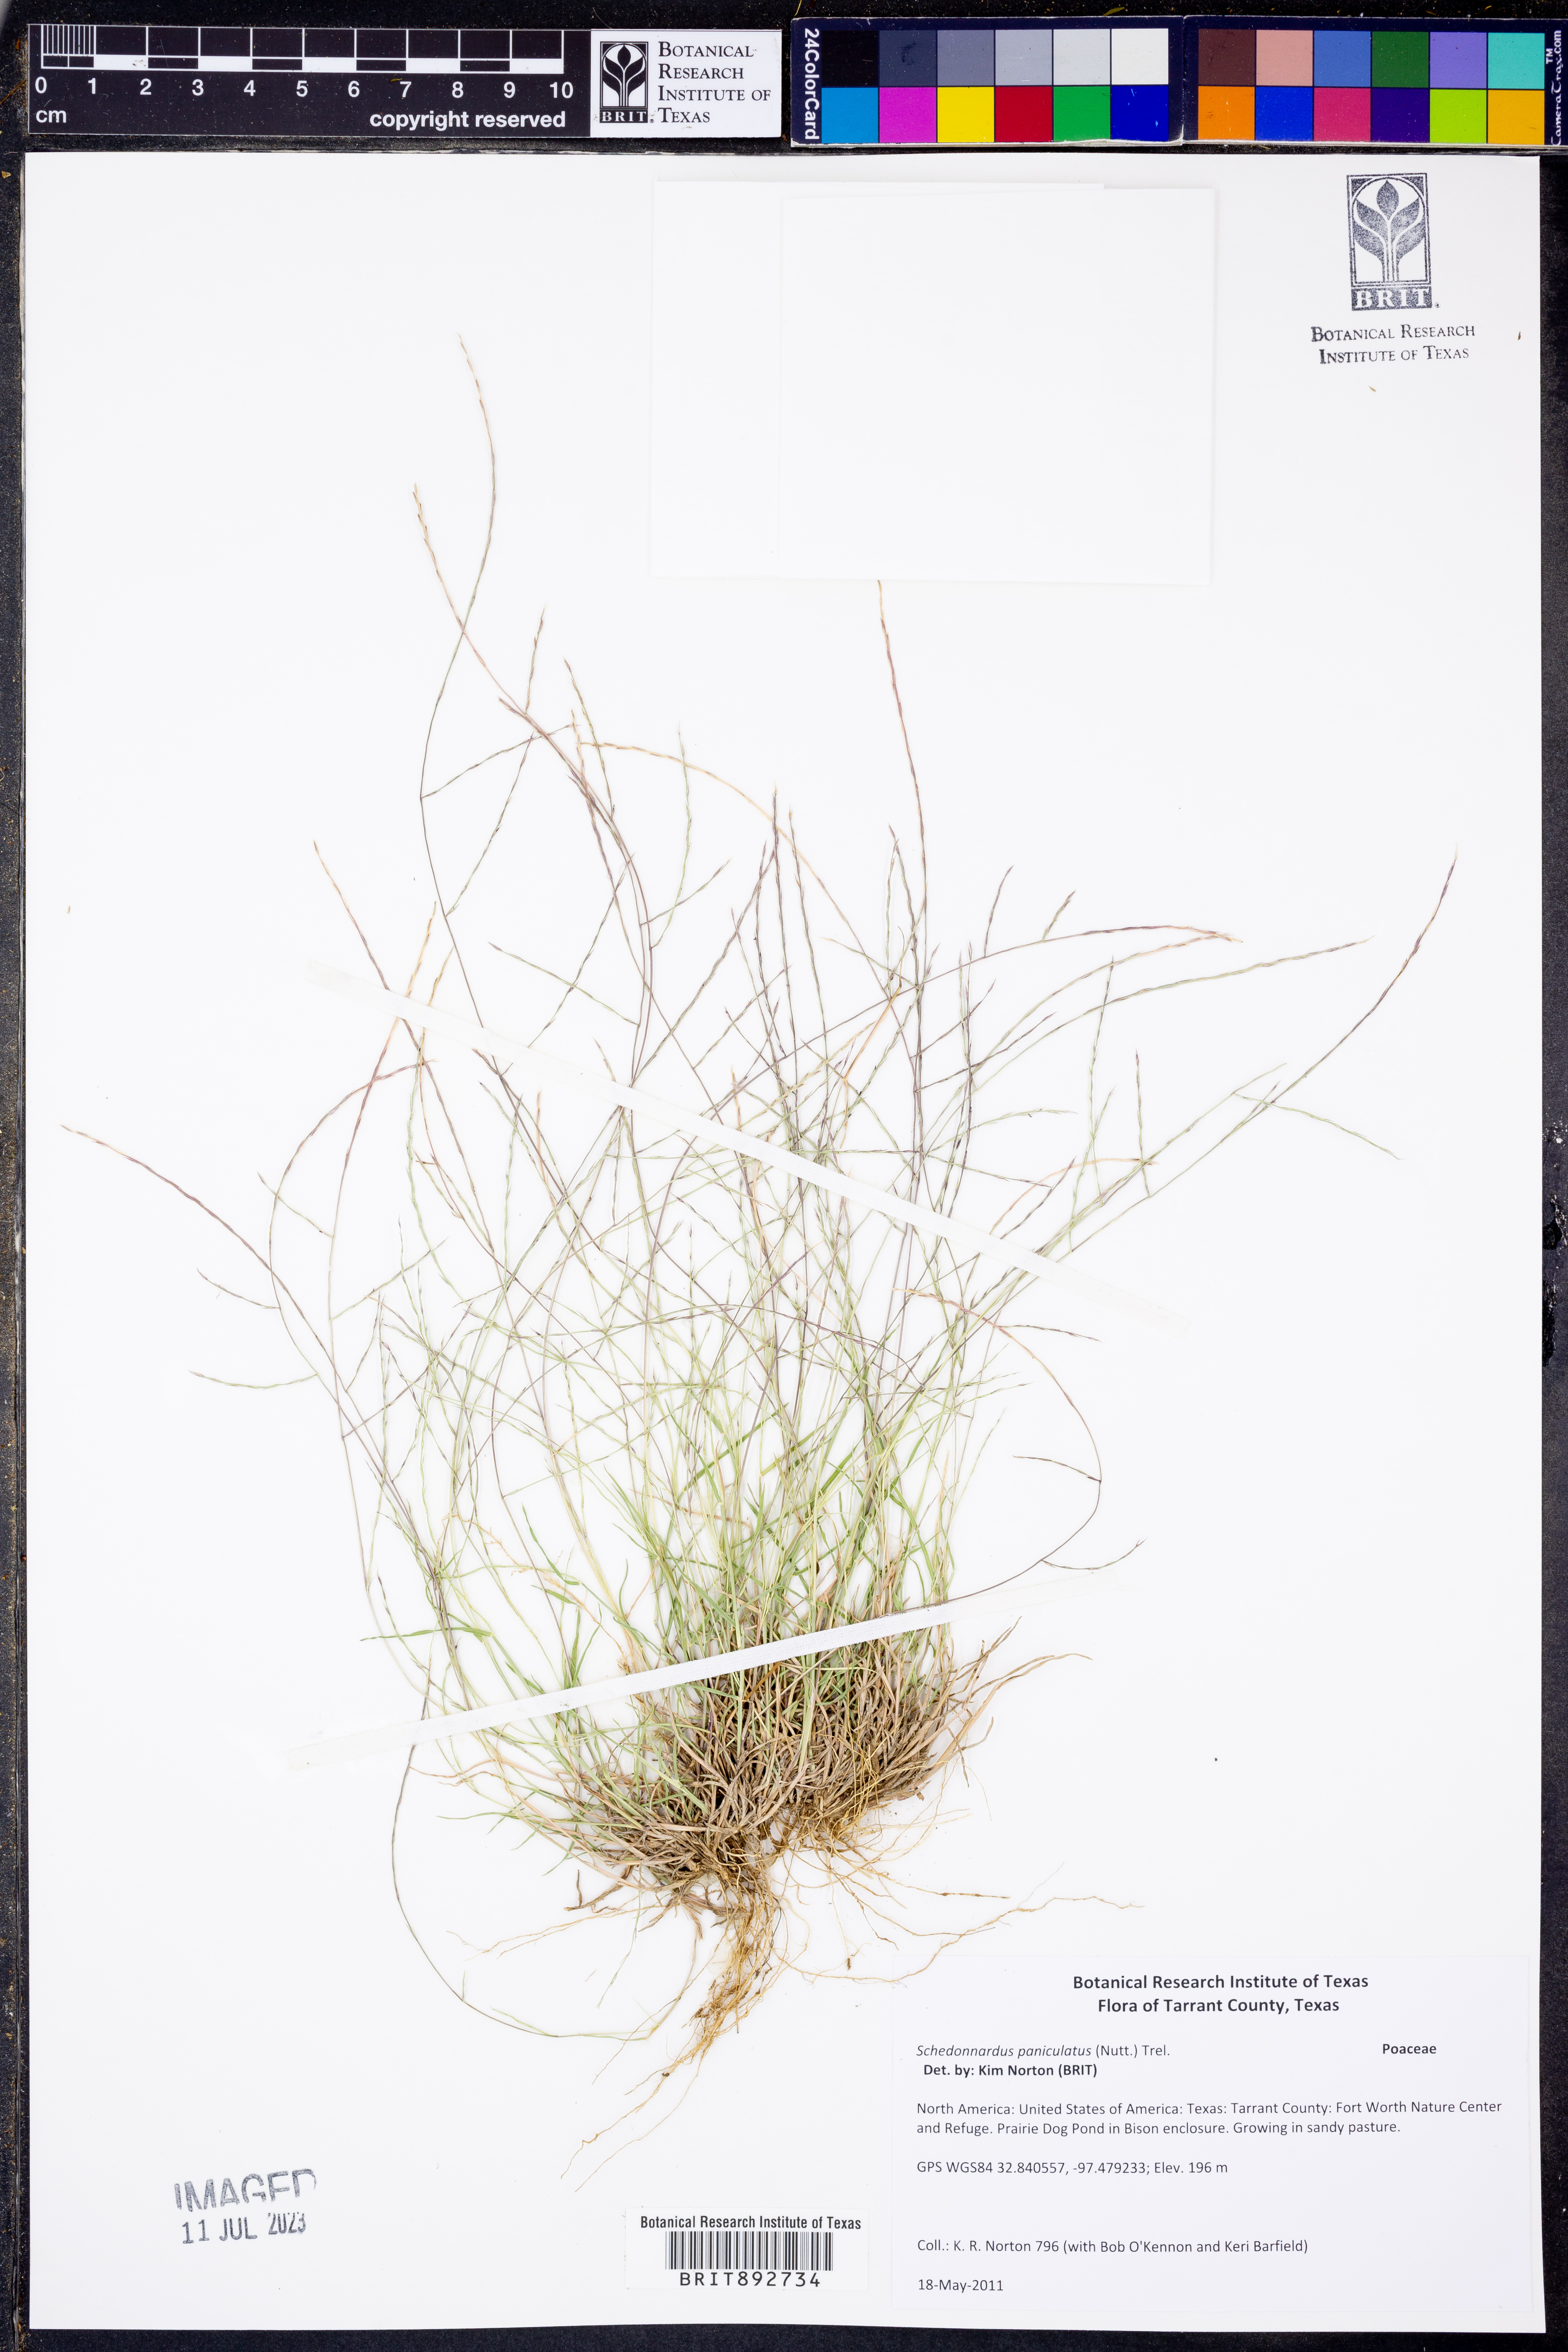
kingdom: Plantae
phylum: Tracheophyta
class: Liliopsida
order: Poales
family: Poaceae
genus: Muhlenbergia
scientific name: Muhlenbergia paniculata
